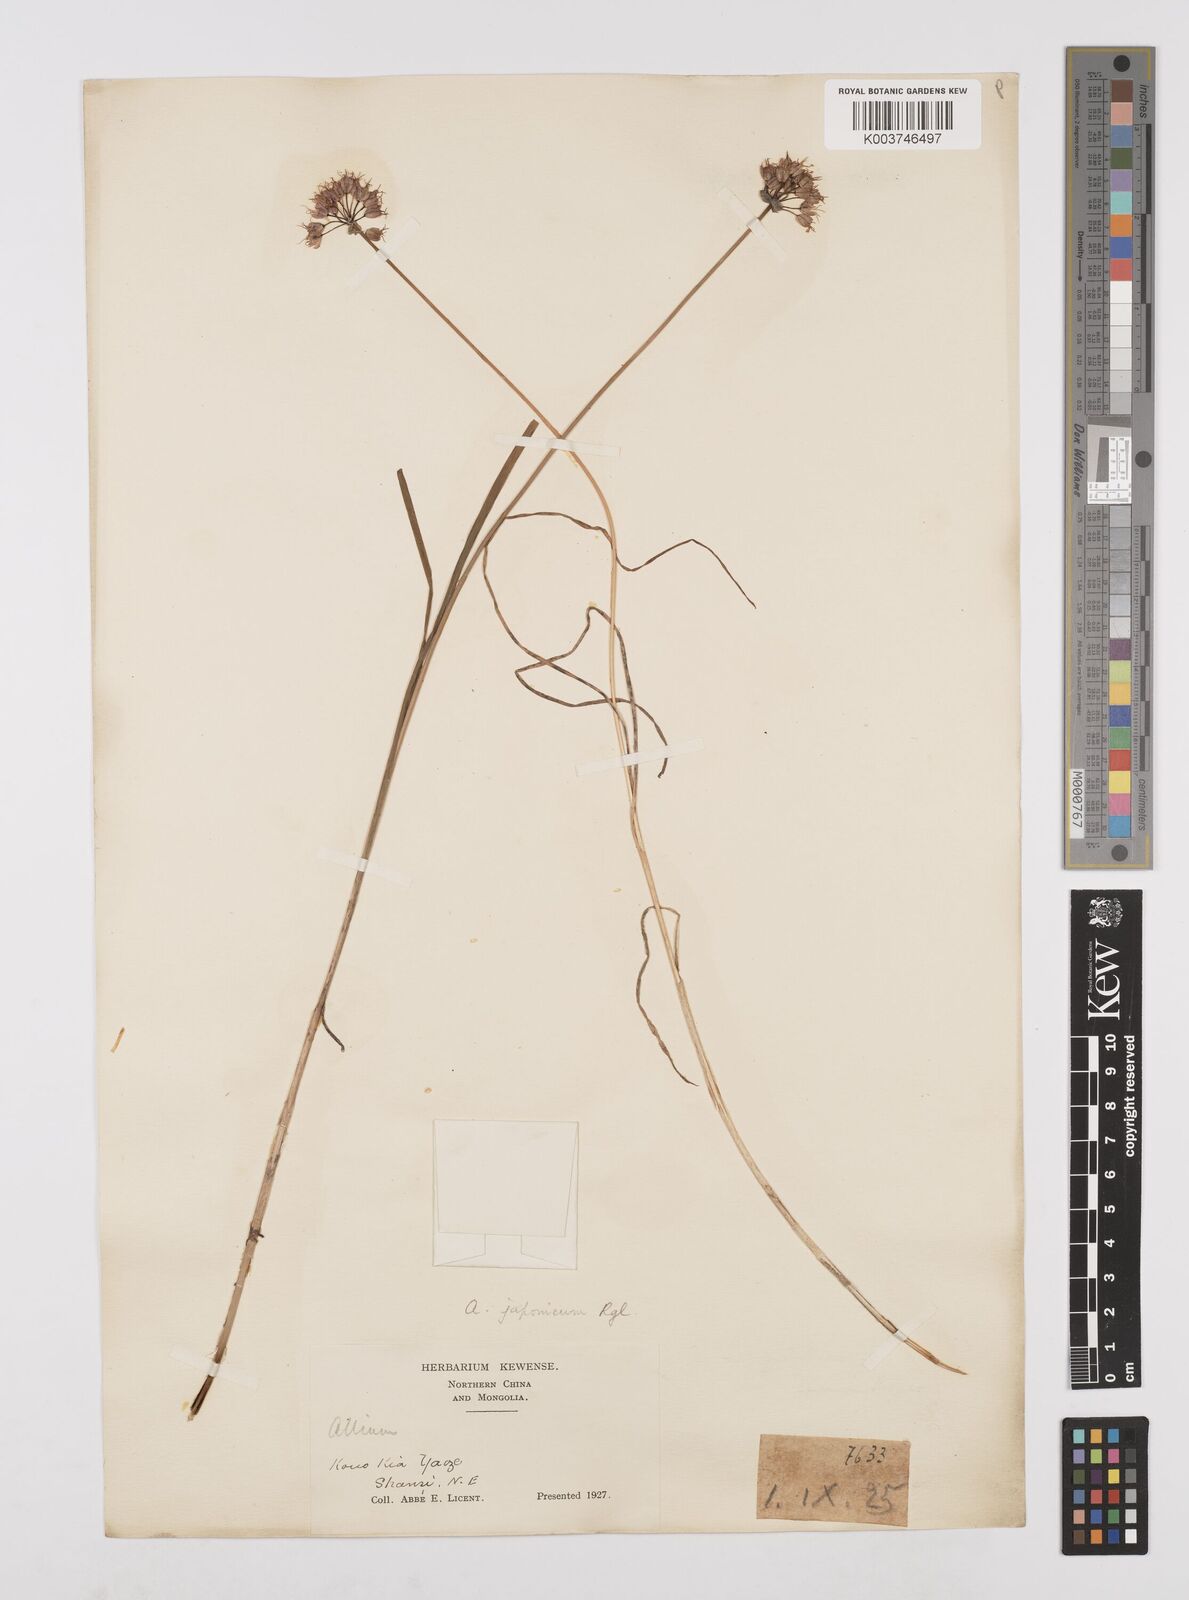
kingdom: Plantae
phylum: Tracheophyta
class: Liliopsida
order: Asparagales
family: Amaryllidaceae
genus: Allium
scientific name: Allium sacculiferum
